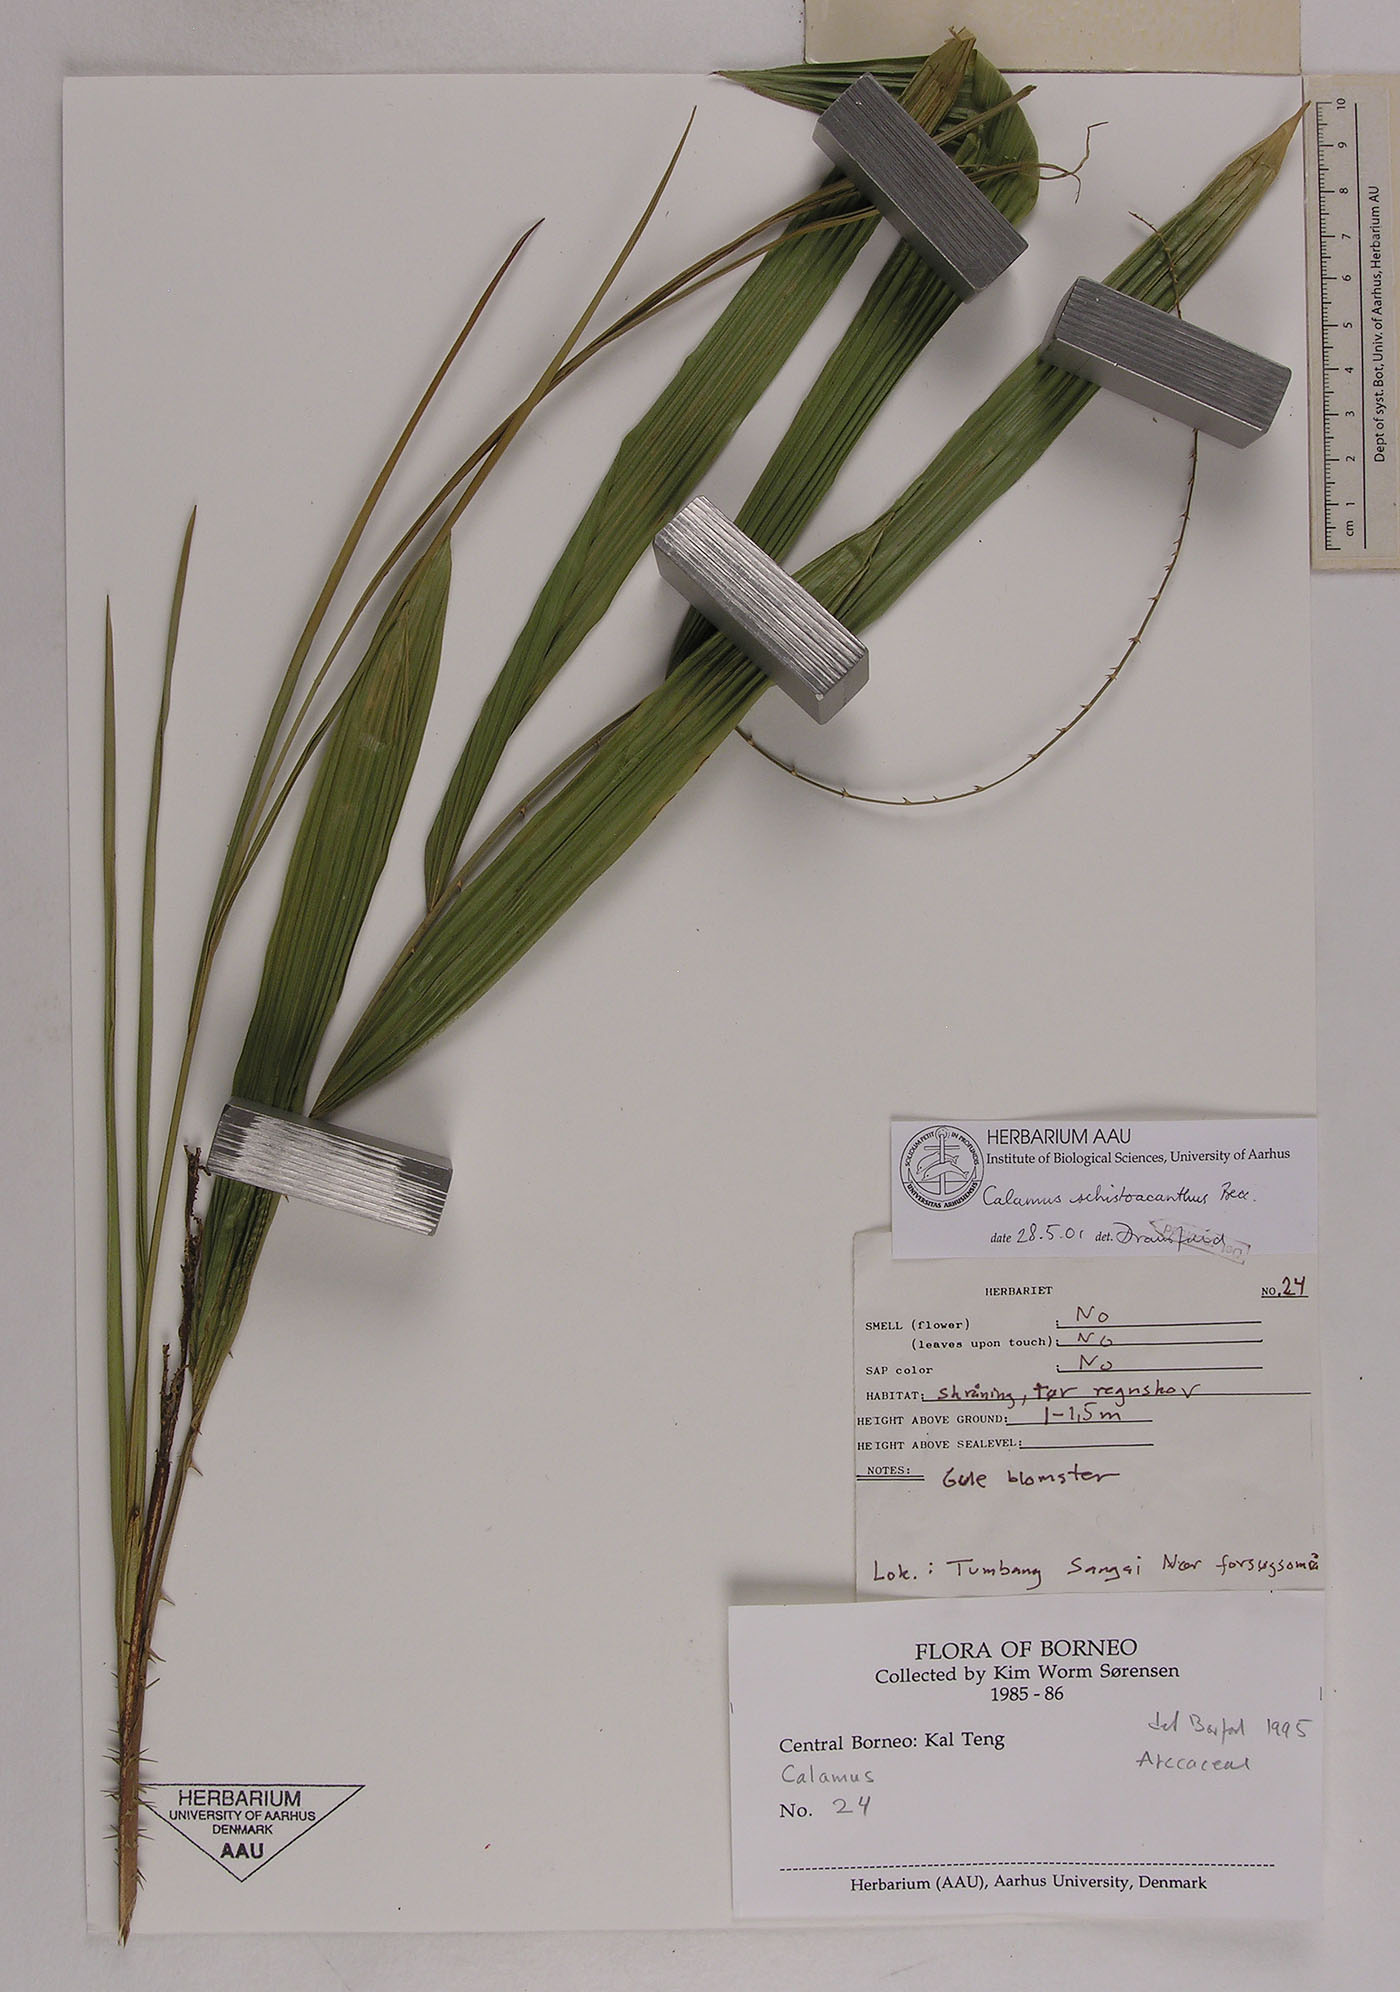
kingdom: Plantae
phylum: Tracheophyta
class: Liliopsida
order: Arecales
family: Arecaceae
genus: Calamus
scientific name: Calamus plicatus
